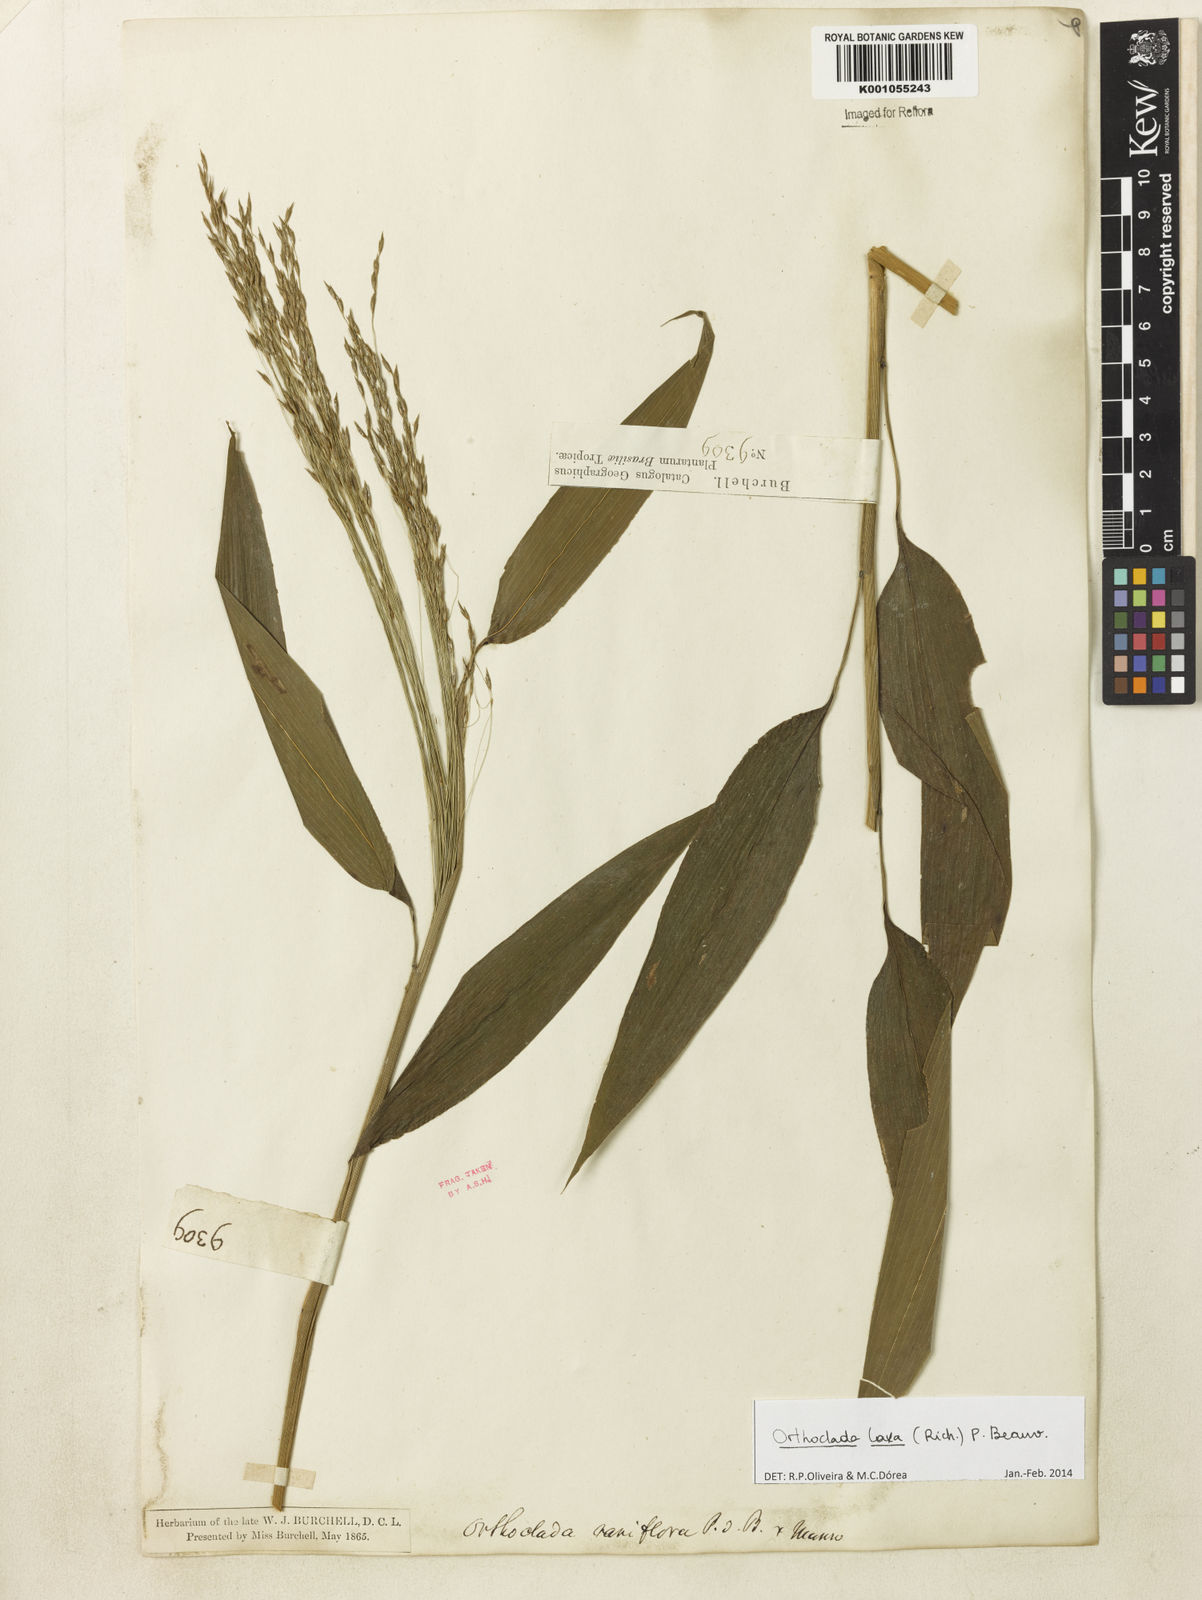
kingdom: Plantae
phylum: Tracheophyta
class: Liliopsida
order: Poales
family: Poaceae
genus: Orthoclada
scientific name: Orthoclada laxa
